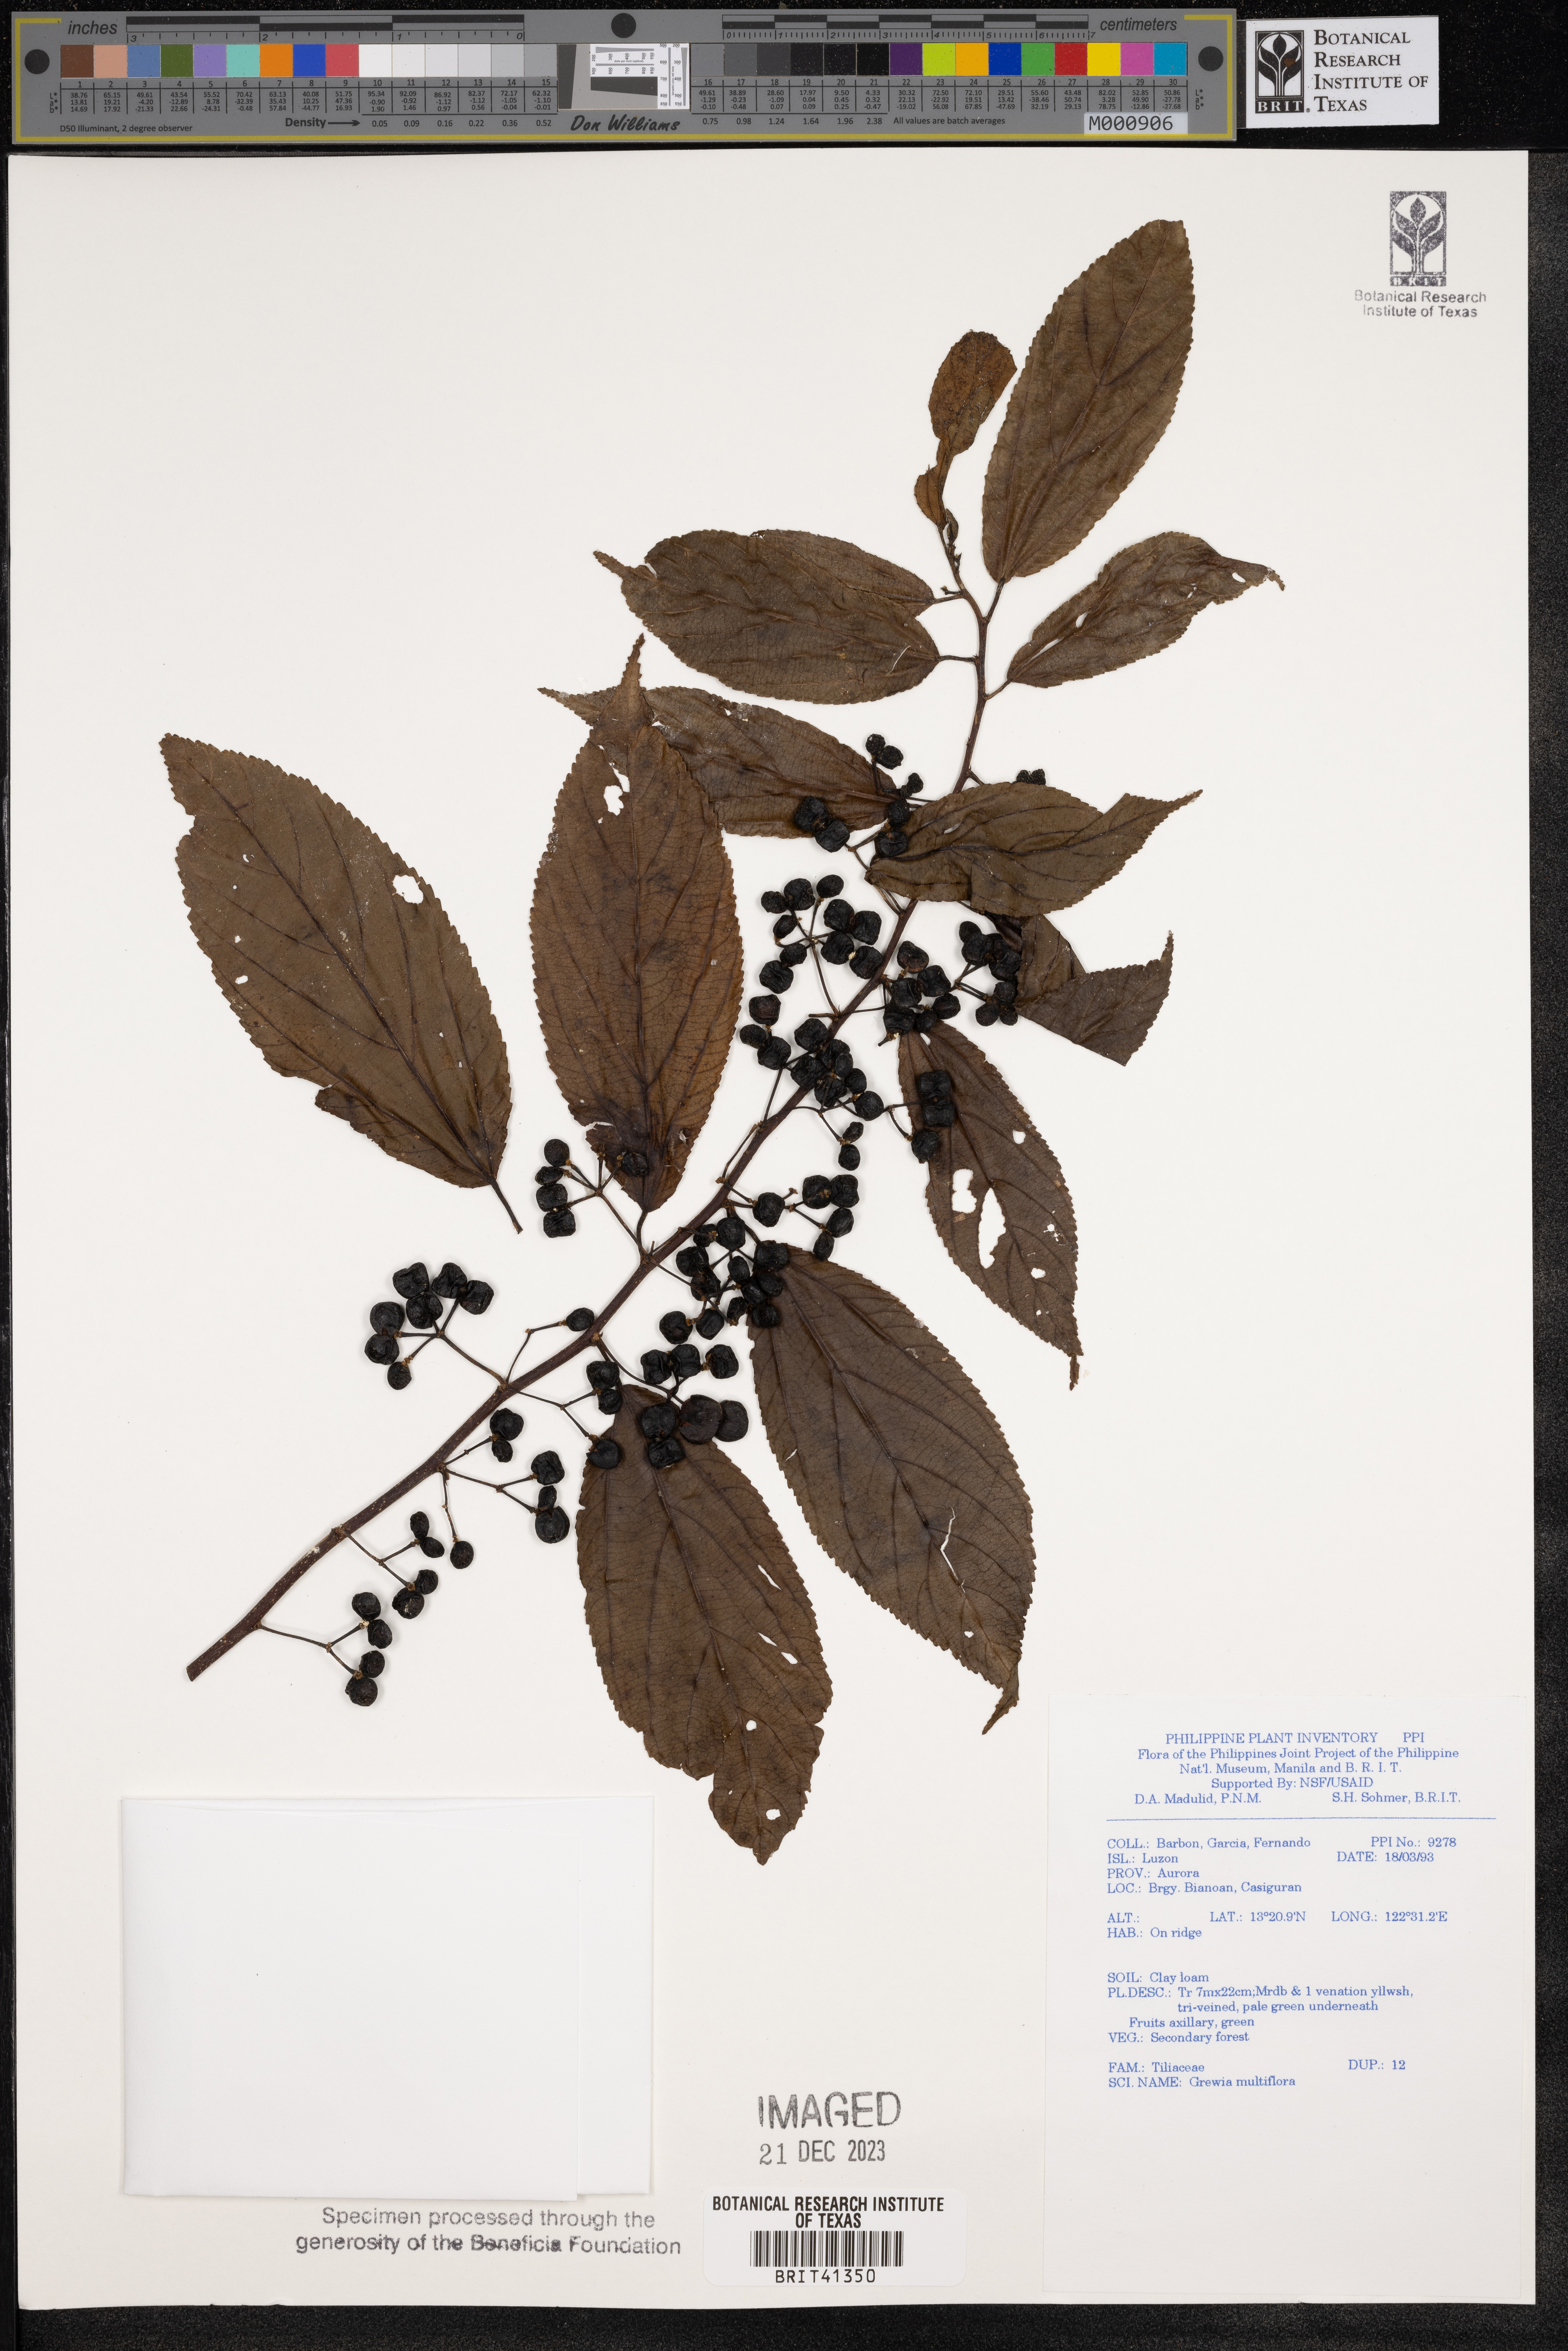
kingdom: Plantae
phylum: Tracheophyta
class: Magnoliopsida
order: Malvales
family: Malvaceae
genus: Grewia
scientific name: Grewia multiflora
